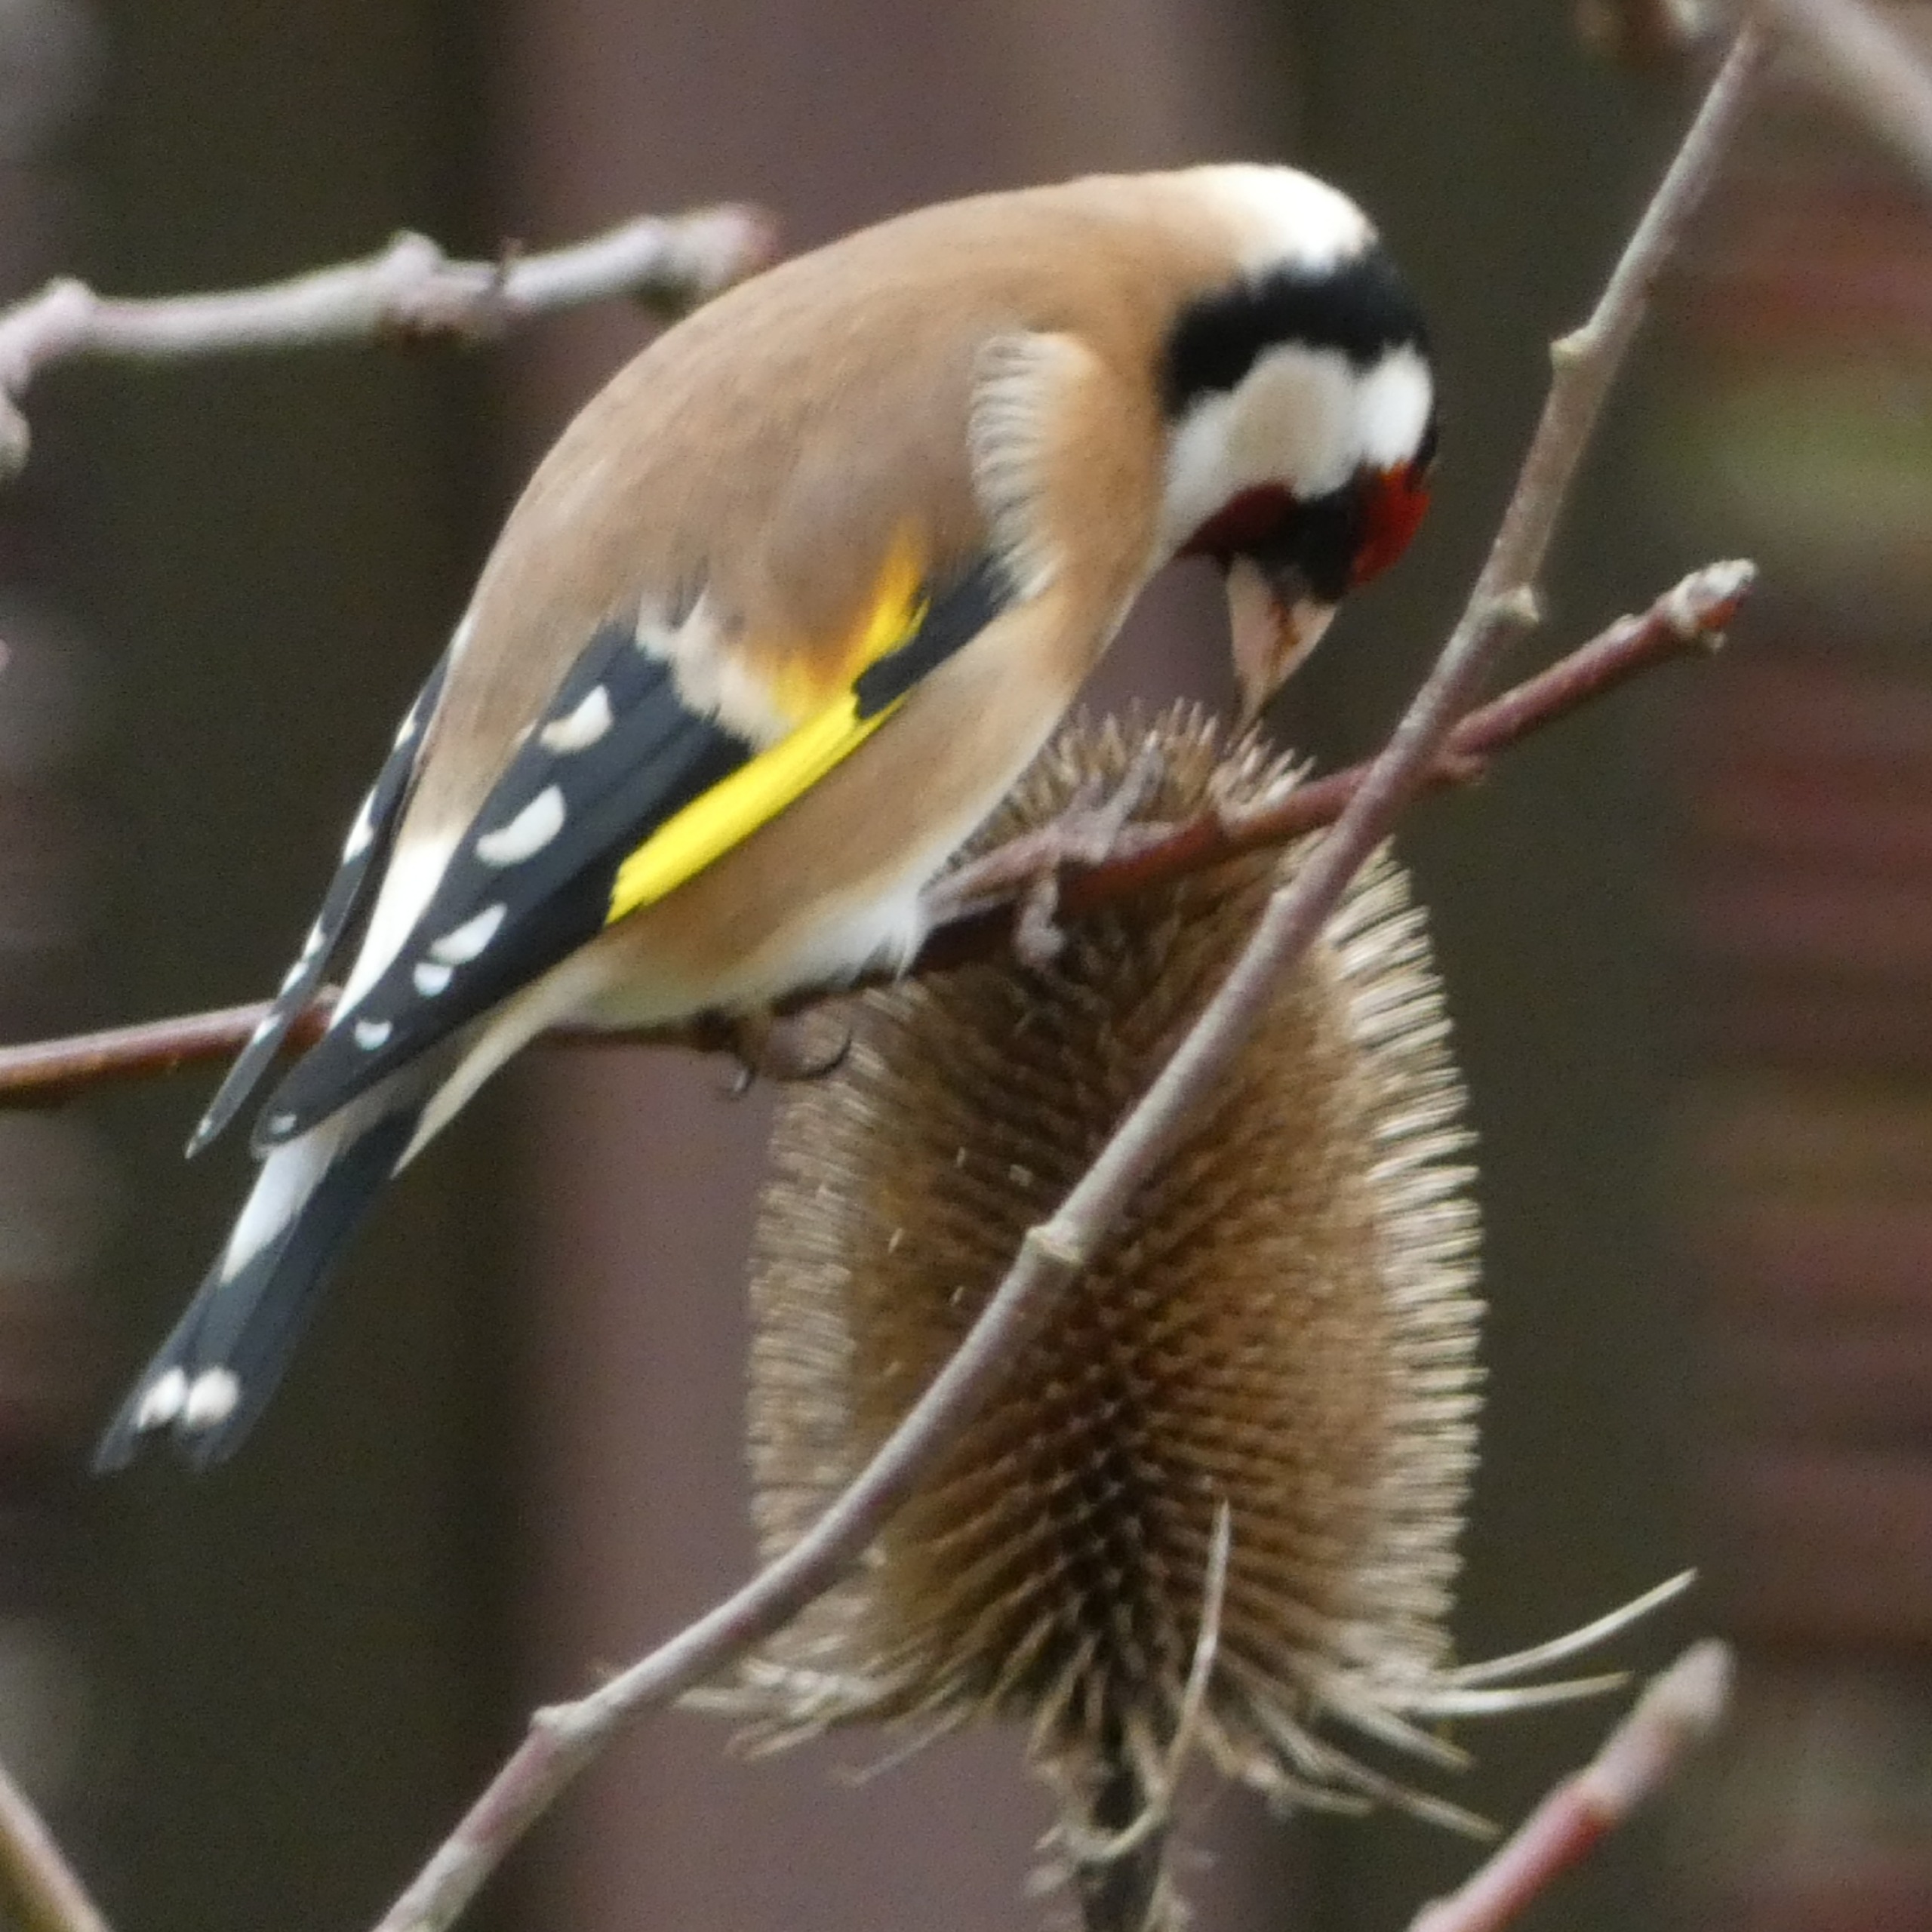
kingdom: Animalia
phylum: Chordata
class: Aves
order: Passeriformes
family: Fringillidae
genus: Carduelis
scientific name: Carduelis carduelis
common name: Stillits
